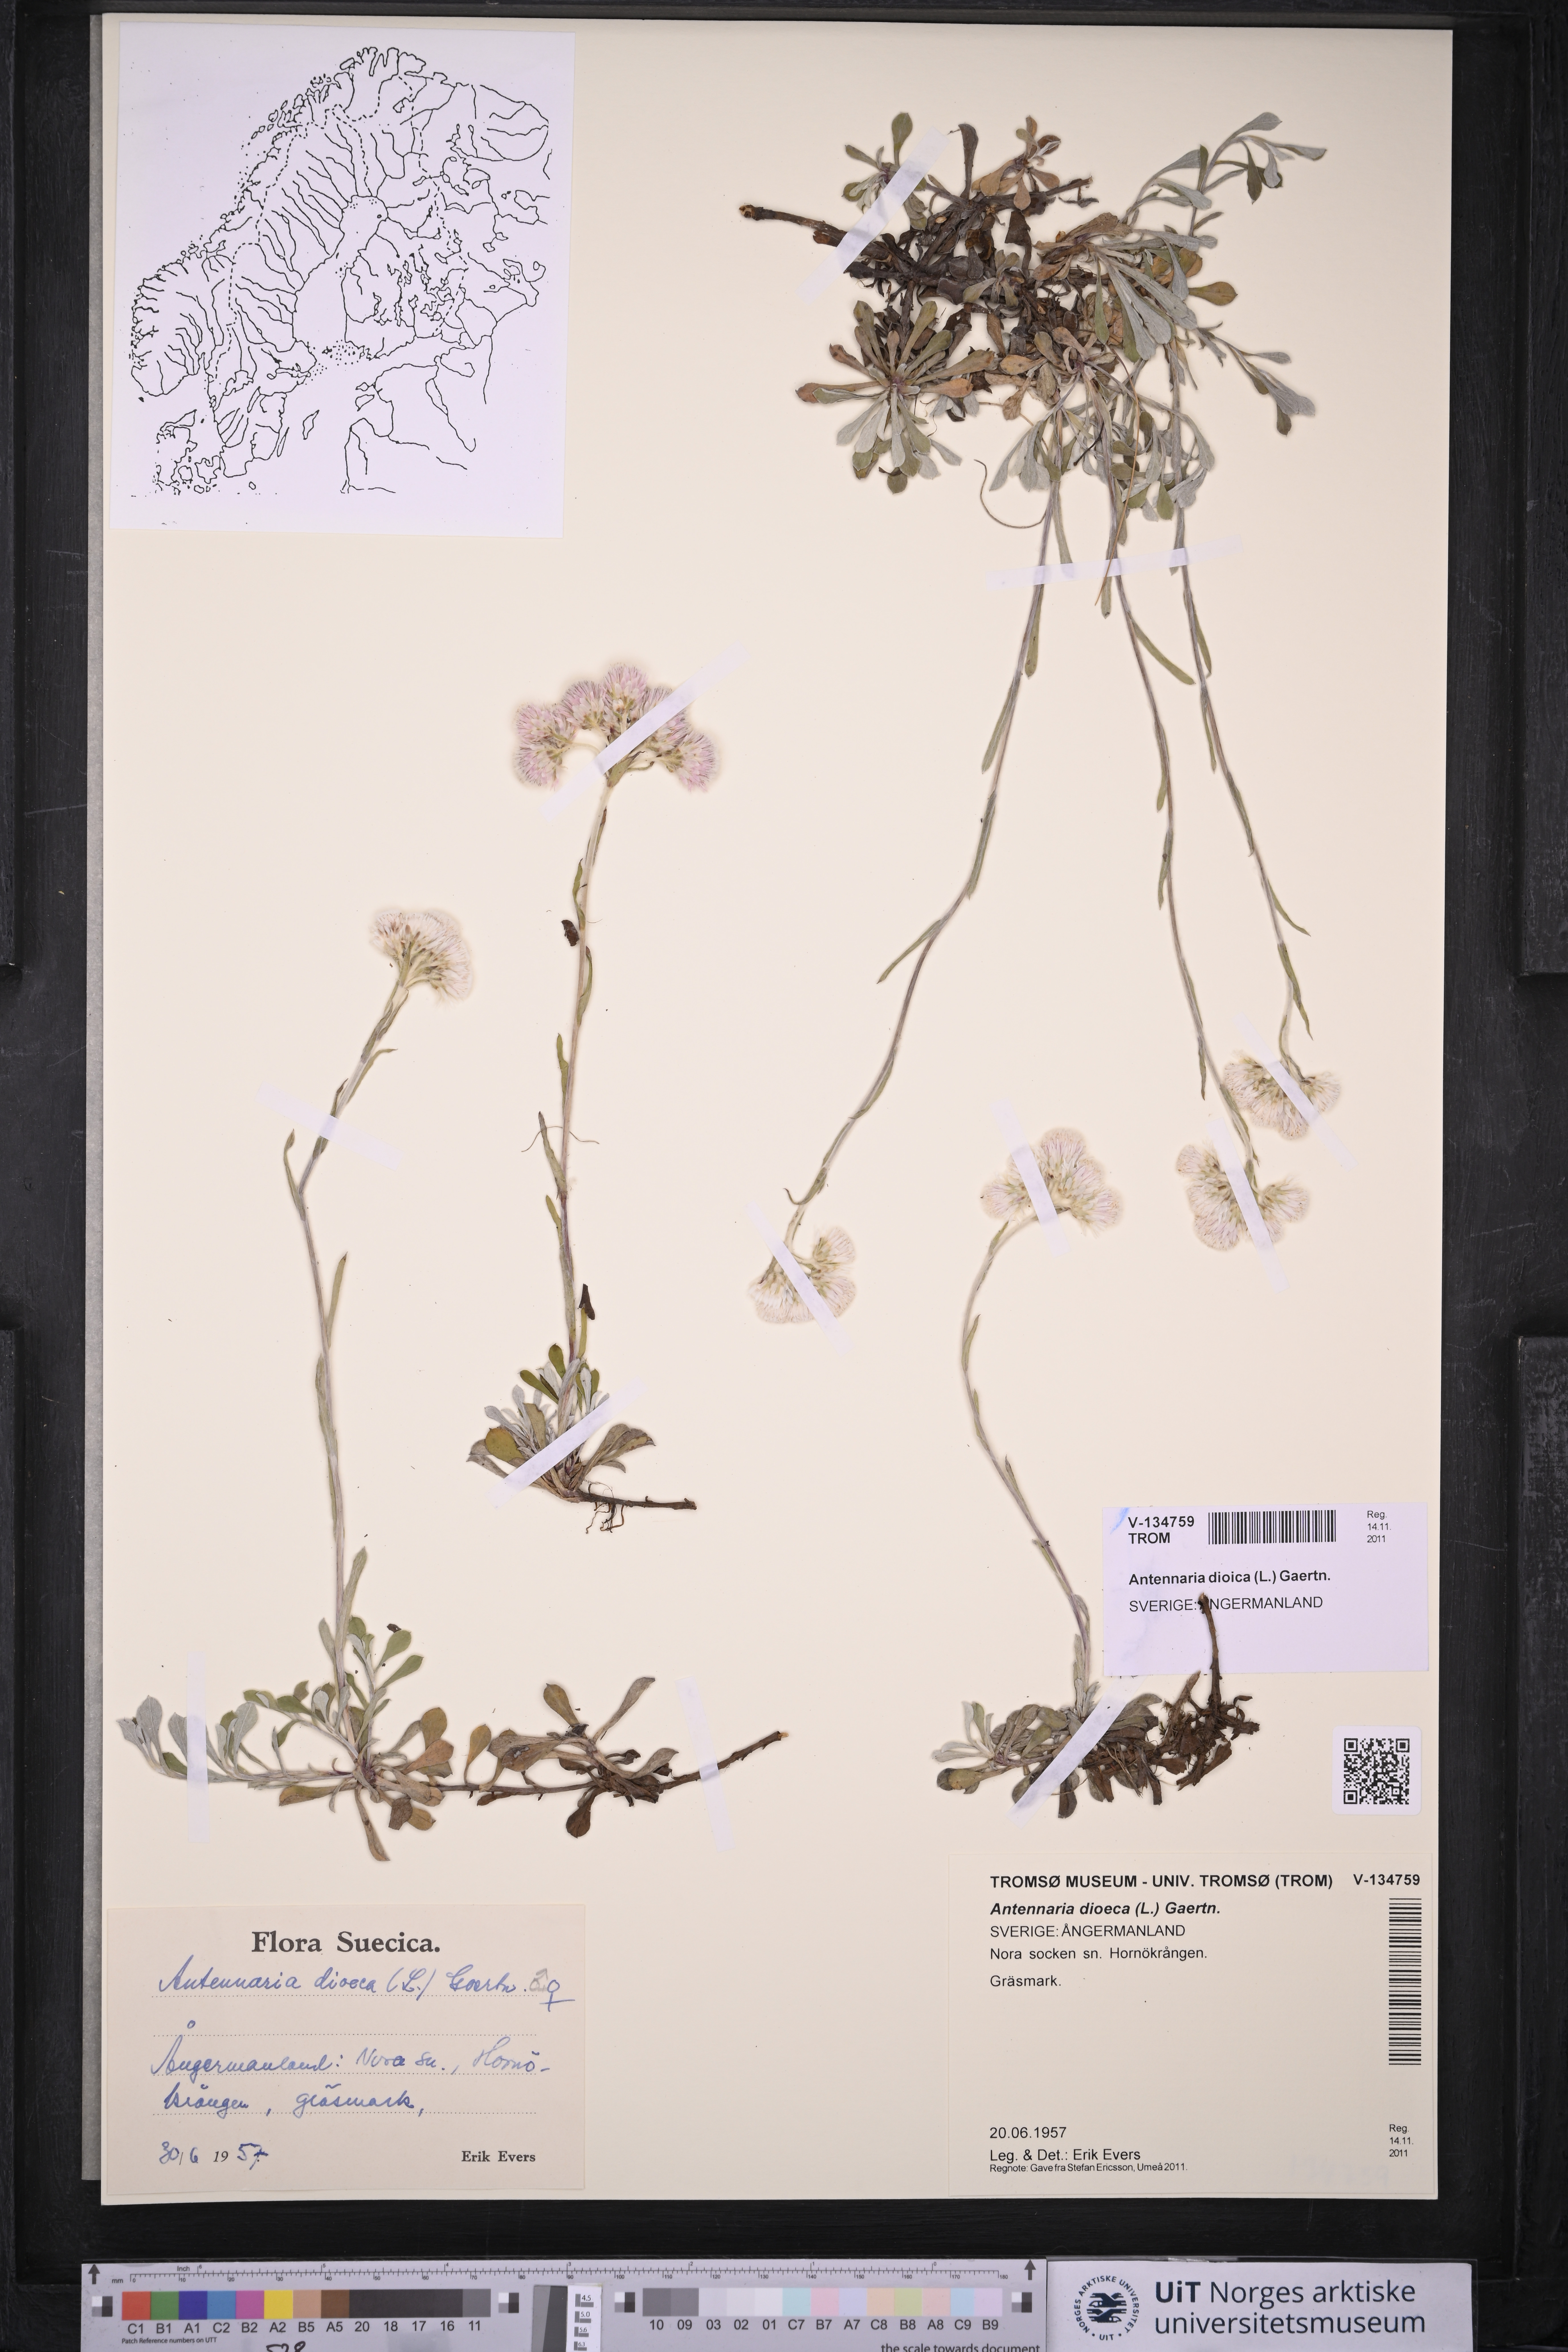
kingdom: Plantae
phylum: Tracheophyta
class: Magnoliopsida
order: Asterales
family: Asteraceae
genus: Antennaria
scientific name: Antennaria dioica
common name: Mountain everlasting
